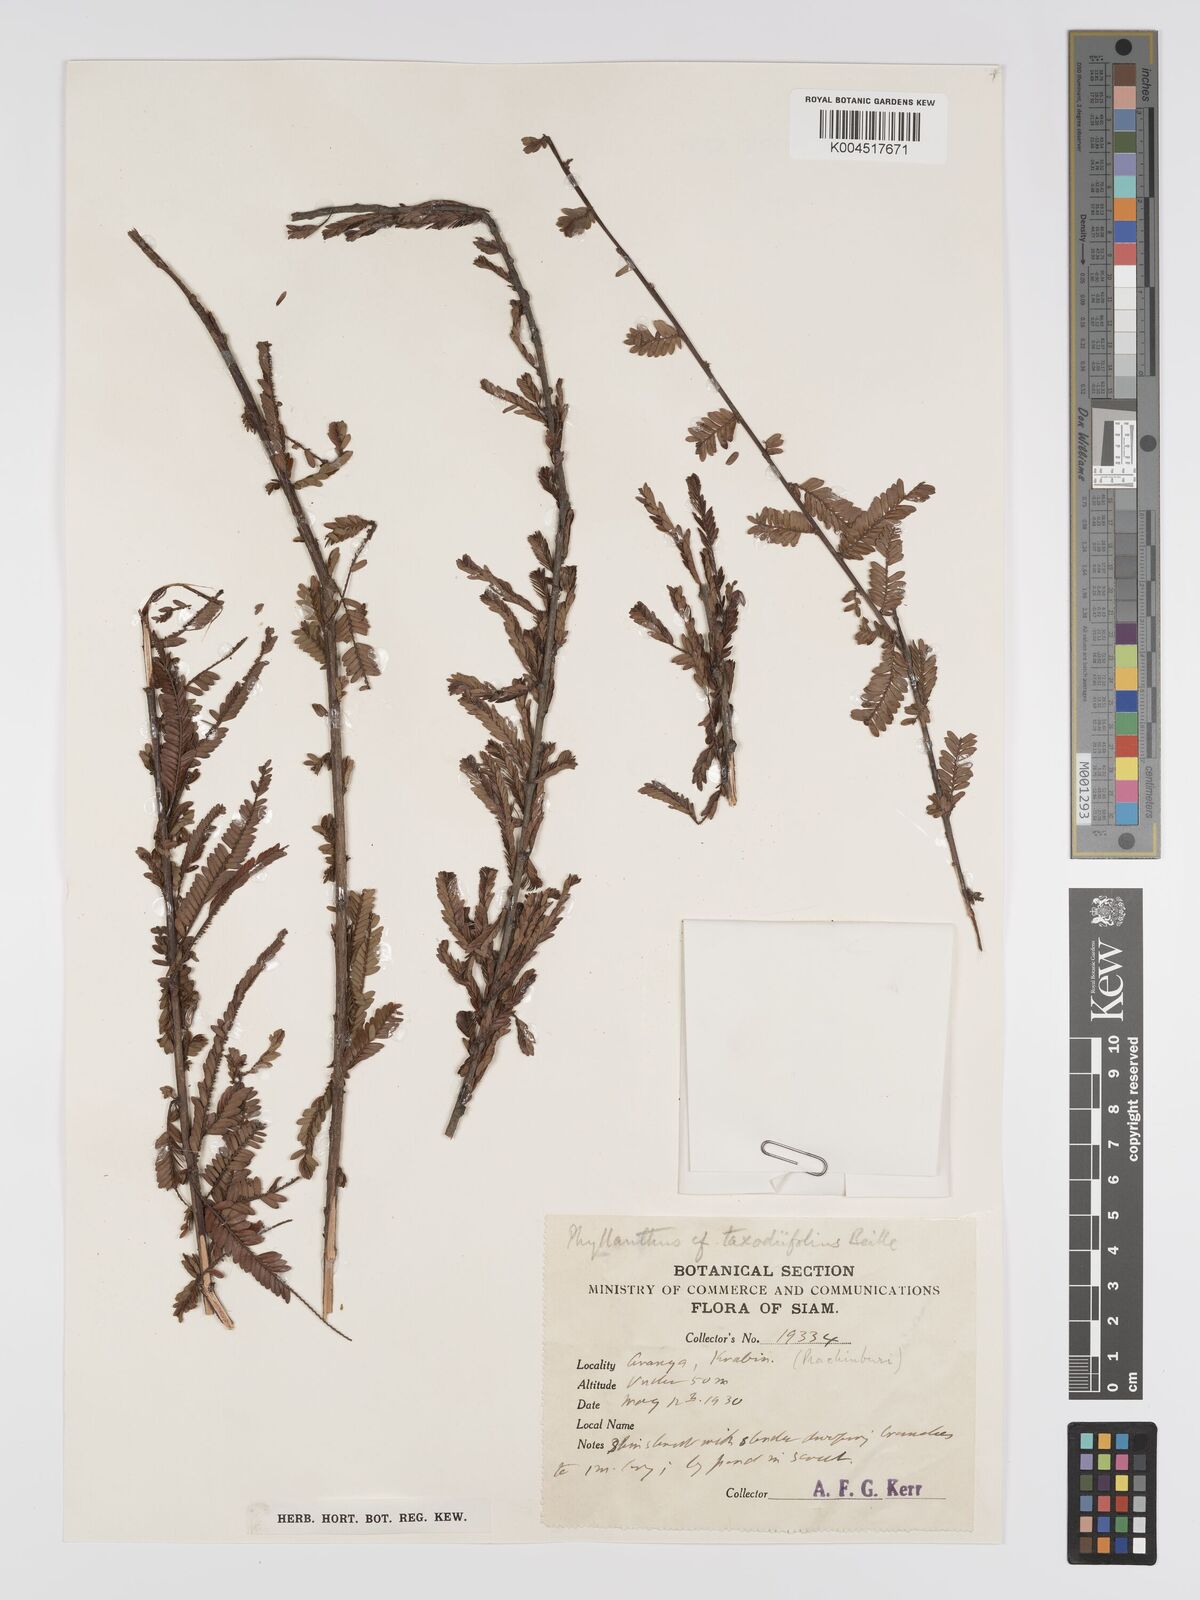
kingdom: Plantae
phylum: Tracheophyta
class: Magnoliopsida
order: Malpighiales
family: Phyllanthaceae
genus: Phyllanthus
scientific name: Phyllanthus taxodiifolius
